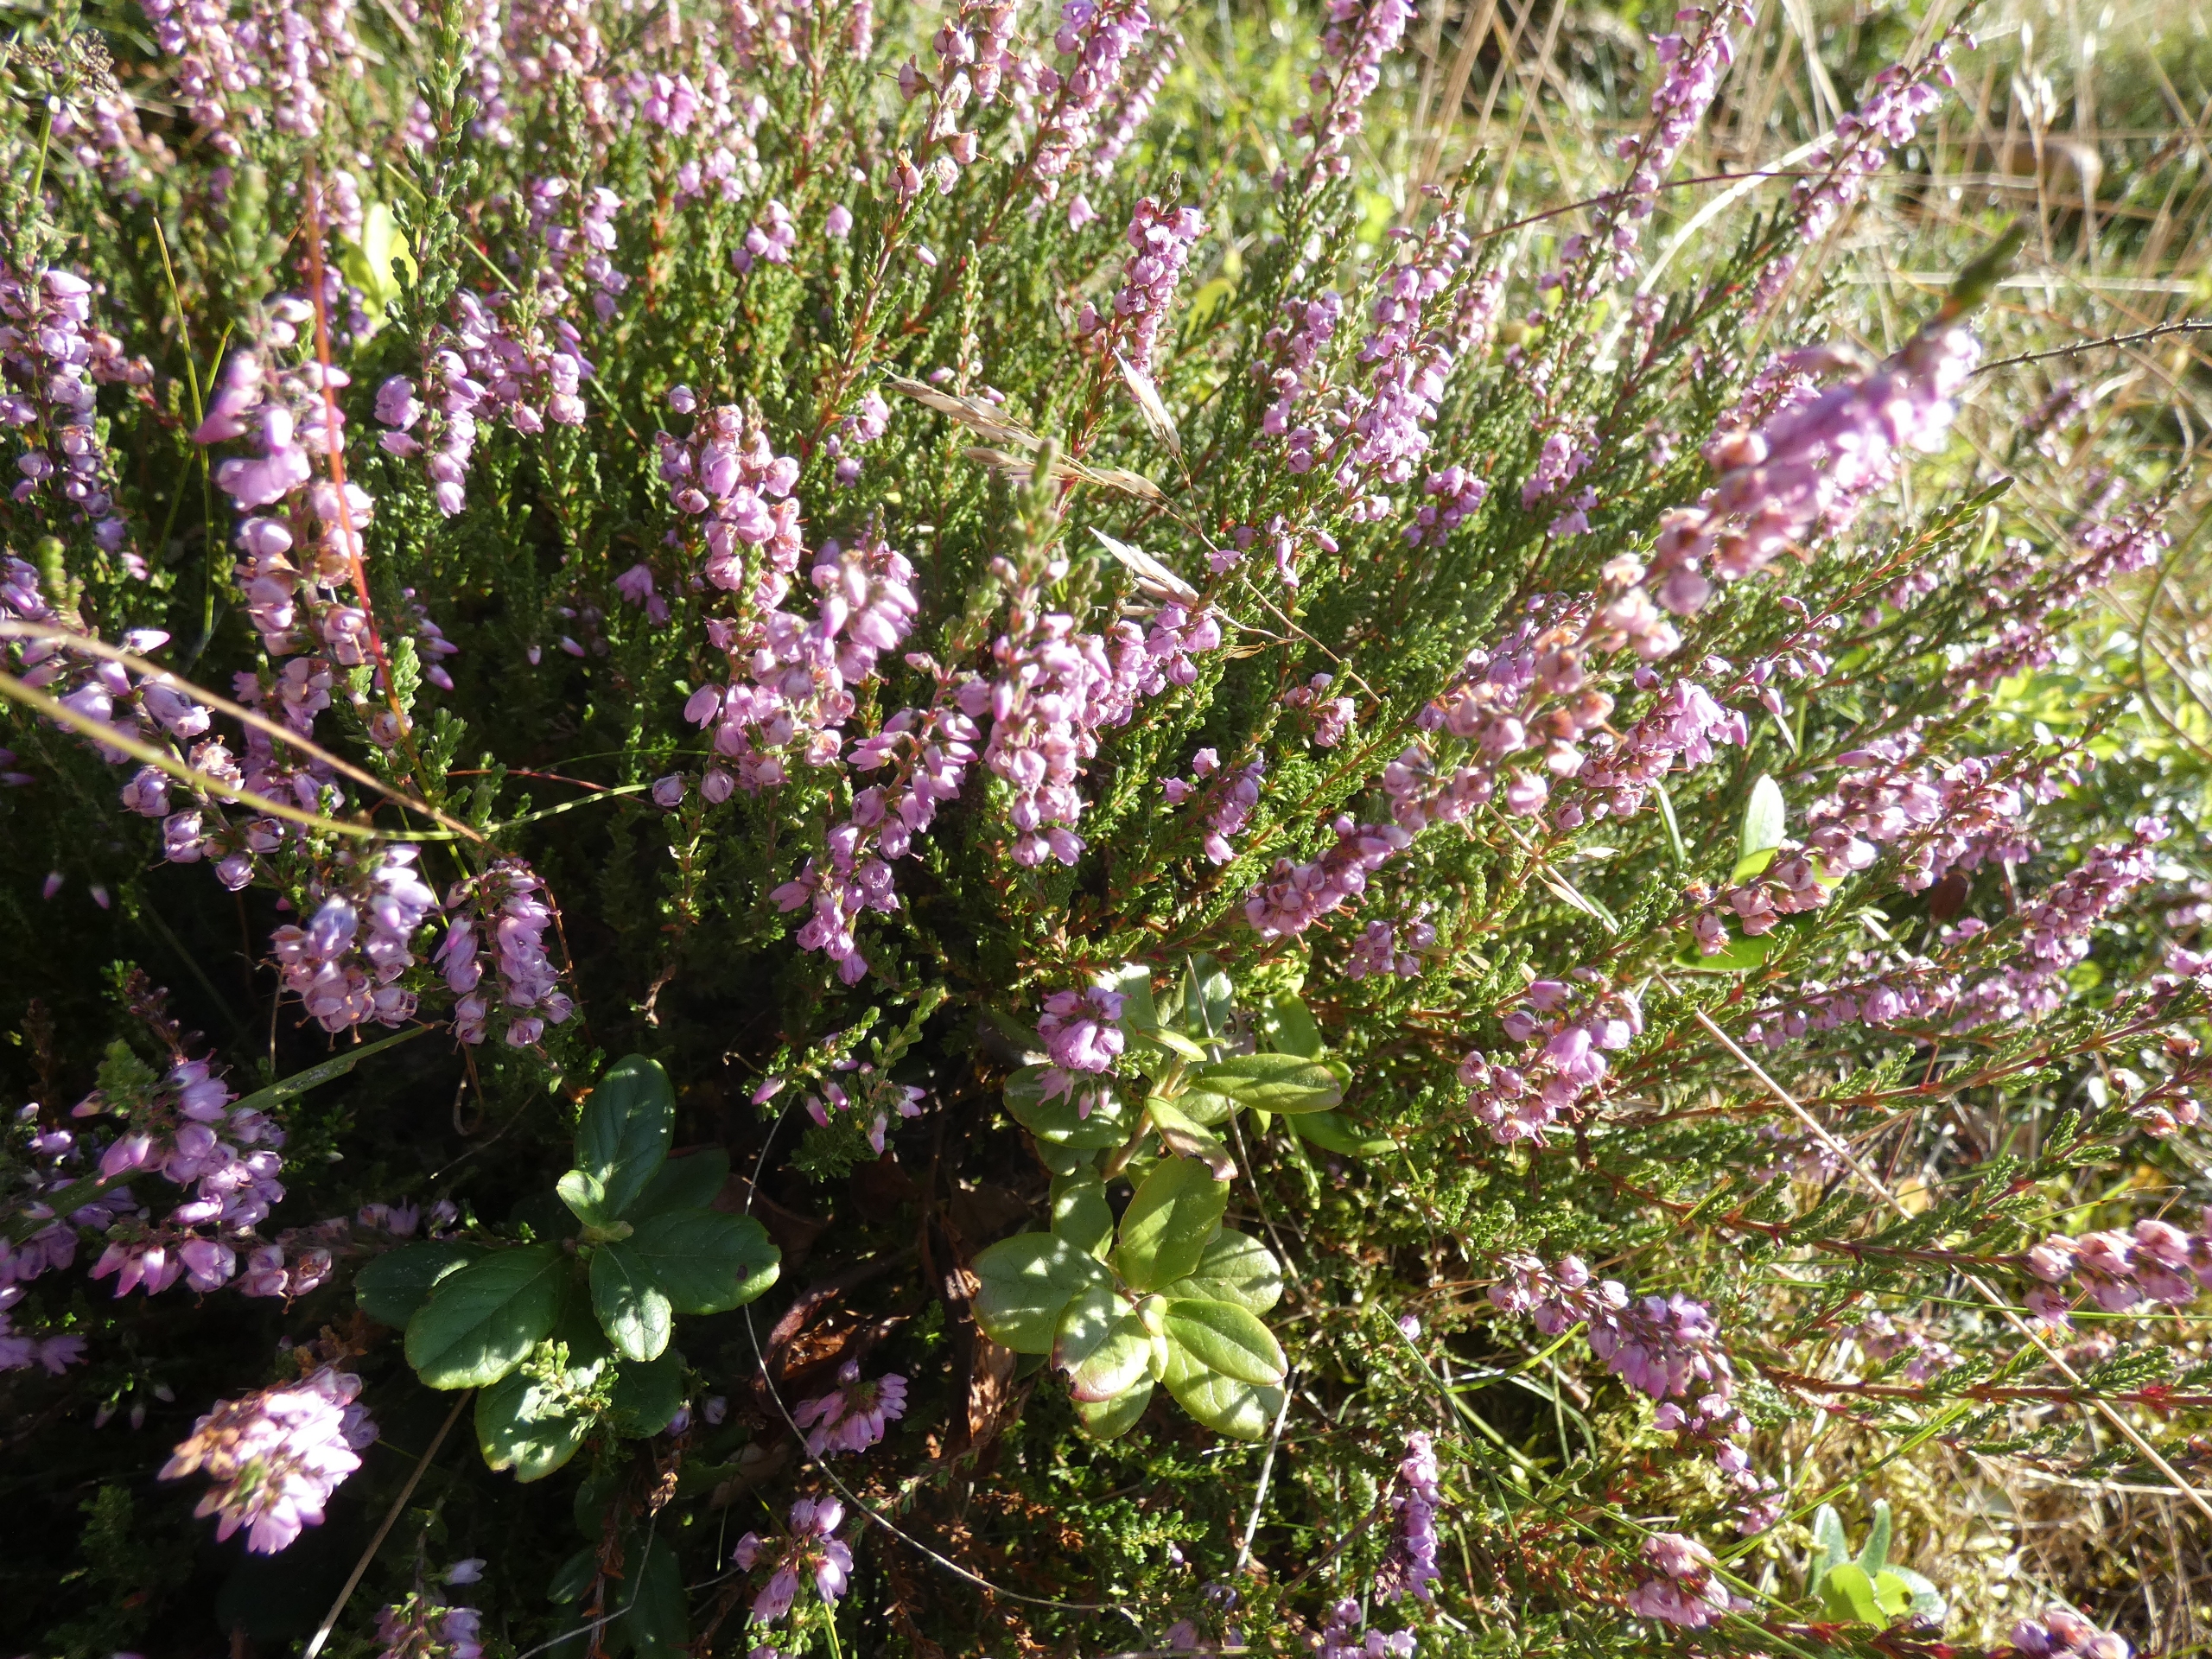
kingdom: Plantae
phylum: Tracheophyta
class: Magnoliopsida
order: Ericales
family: Ericaceae
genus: Calluna
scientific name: Calluna vulgaris
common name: Hedelyng
